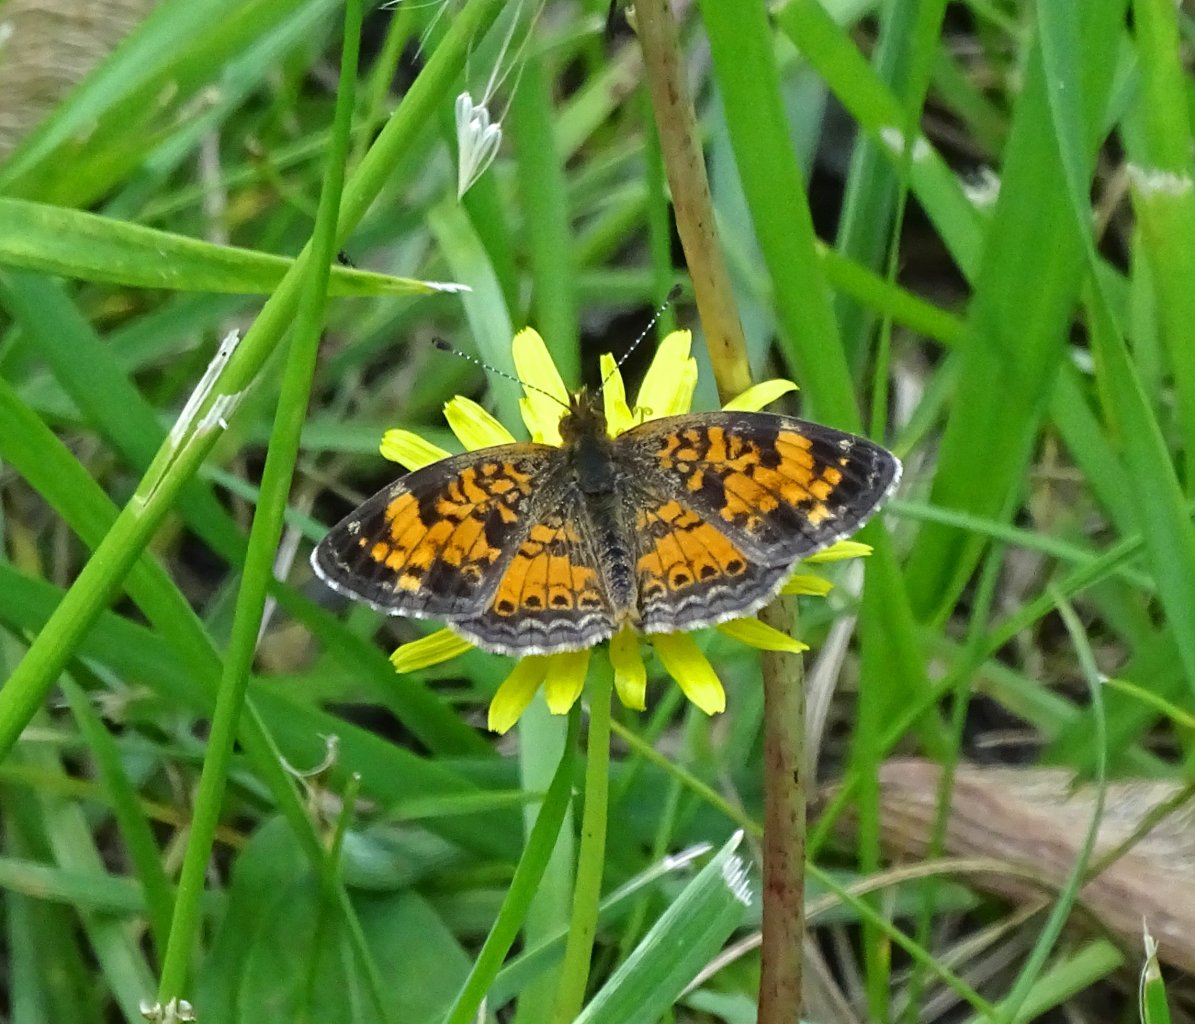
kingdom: Animalia
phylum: Arthropoda
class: Insecta
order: Lepidoptera
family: Nymphalidae
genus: Phyciodes
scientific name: Phyciodes tharos
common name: Pearl Crescent
